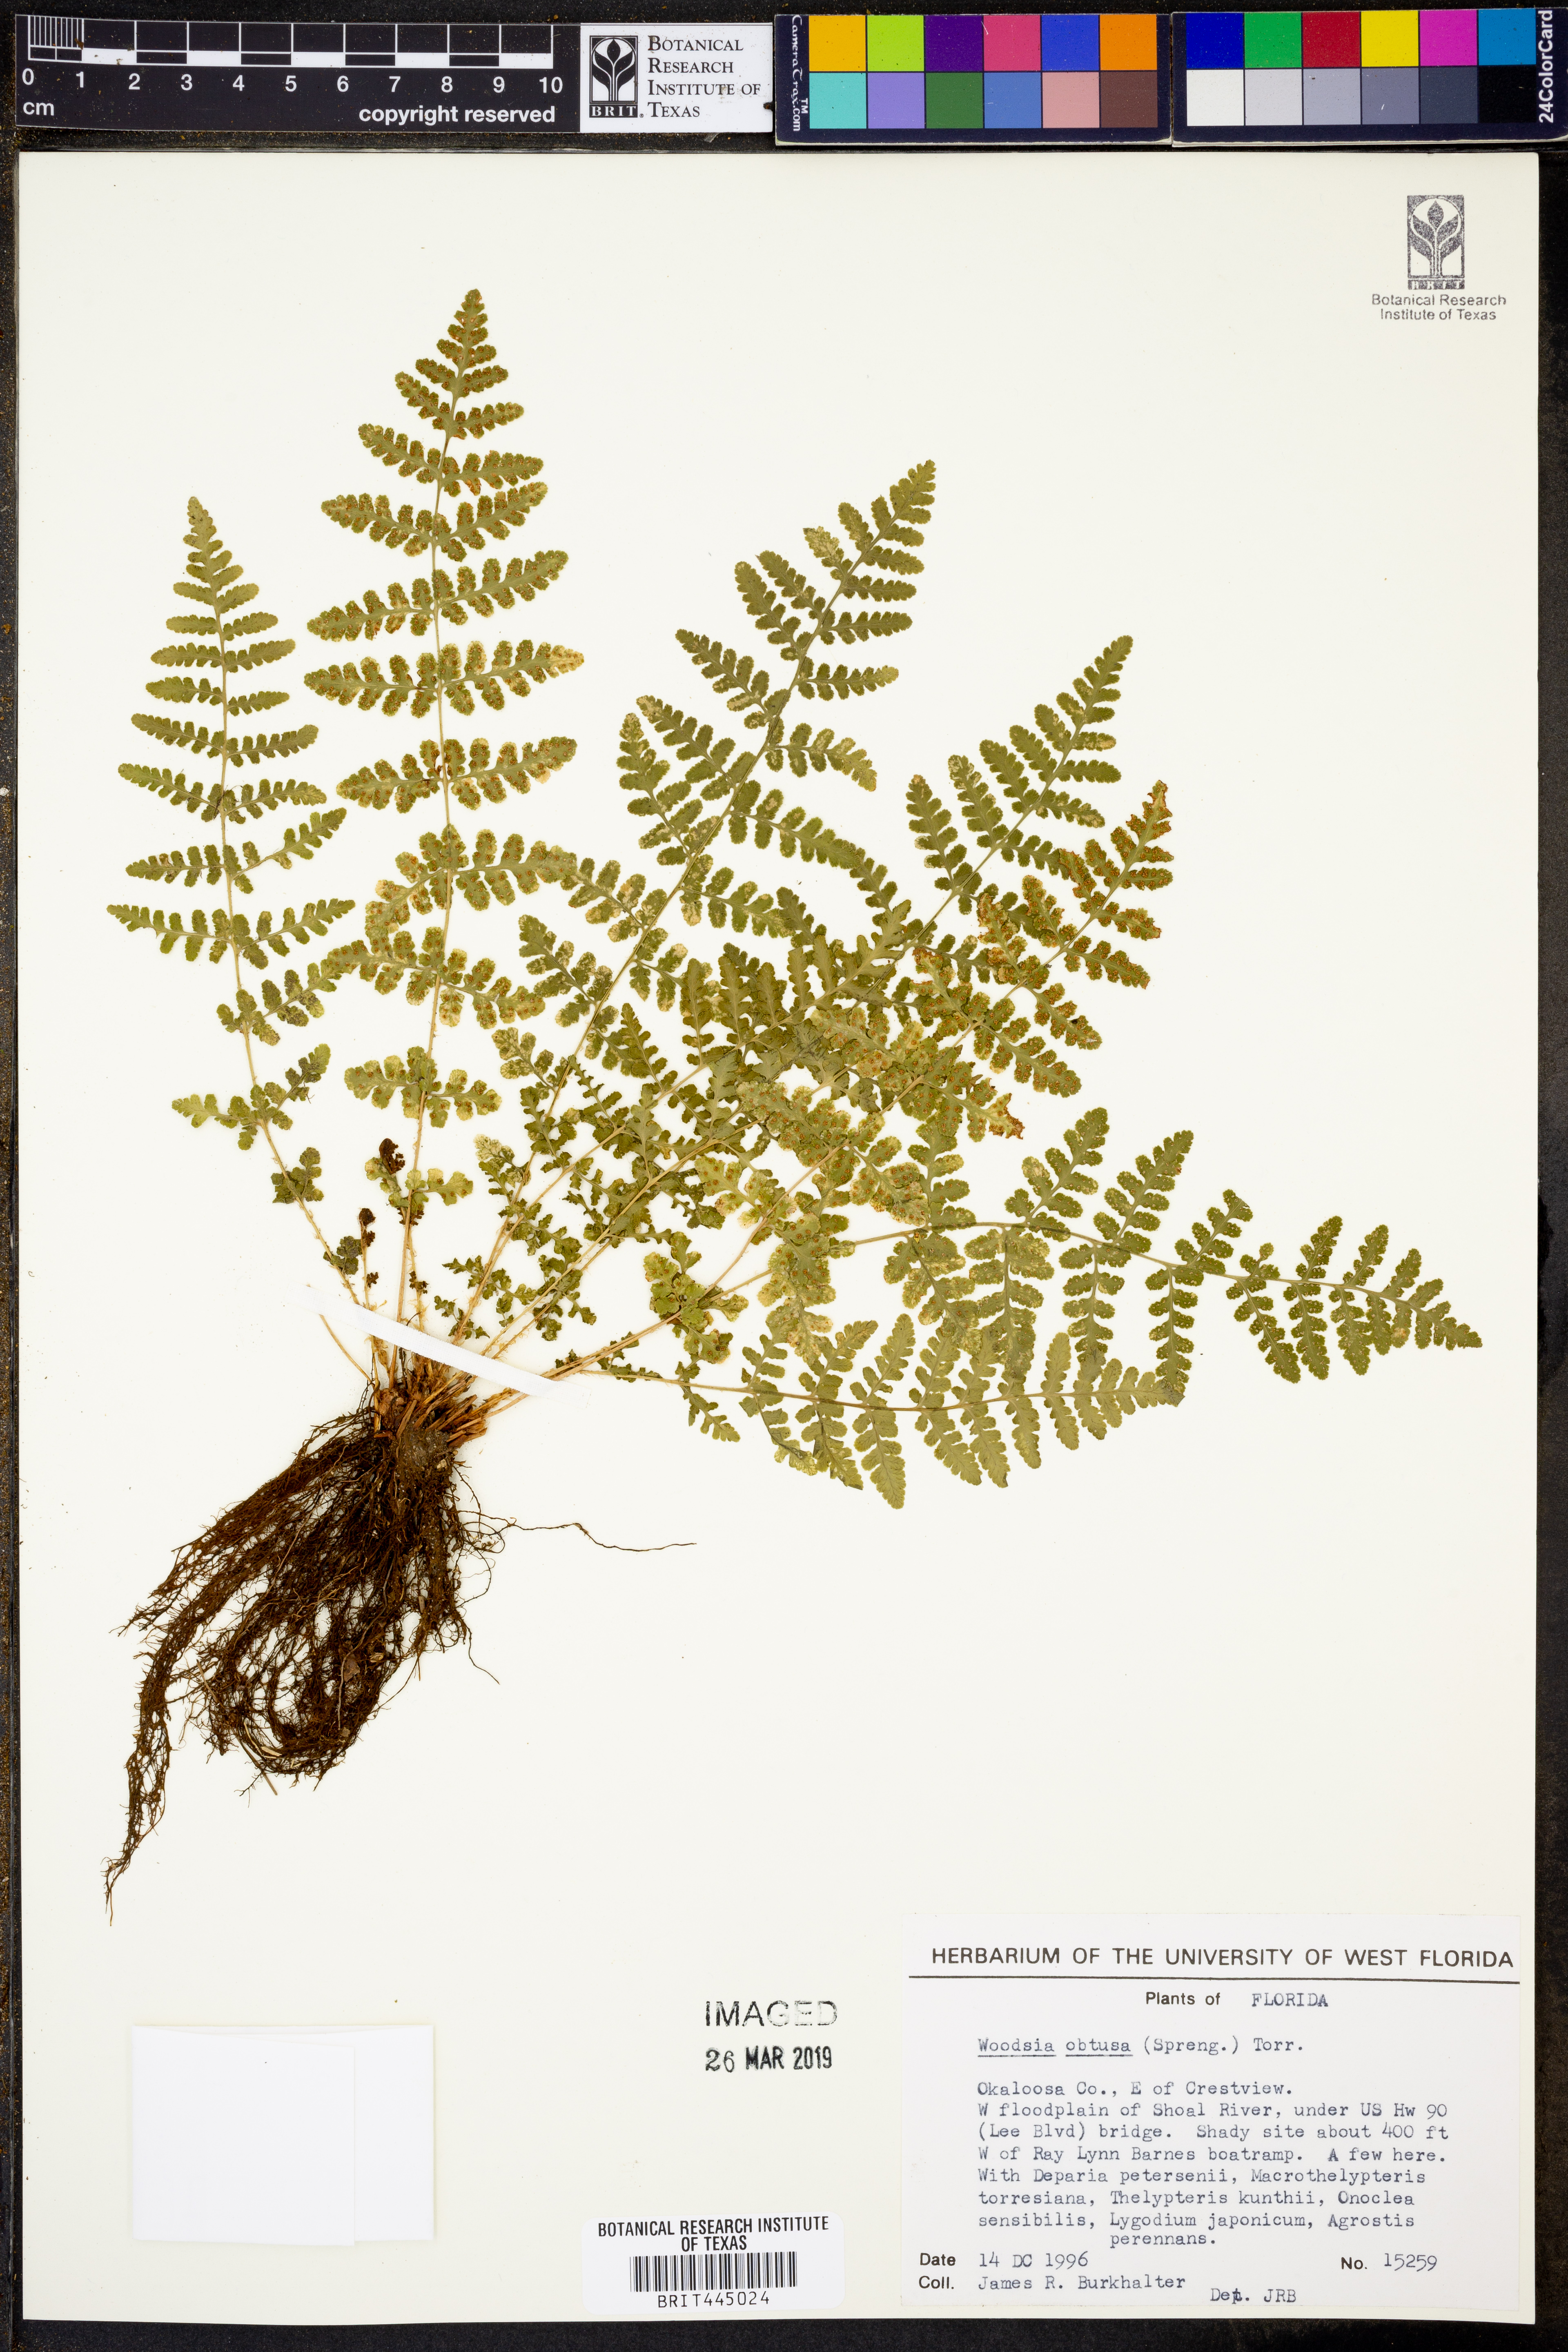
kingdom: Plantae
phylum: Tracheophyta
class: Polypodiopsida
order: Polypodiales
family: Woodsiaceae
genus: Physematium
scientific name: Physematium obtusum
